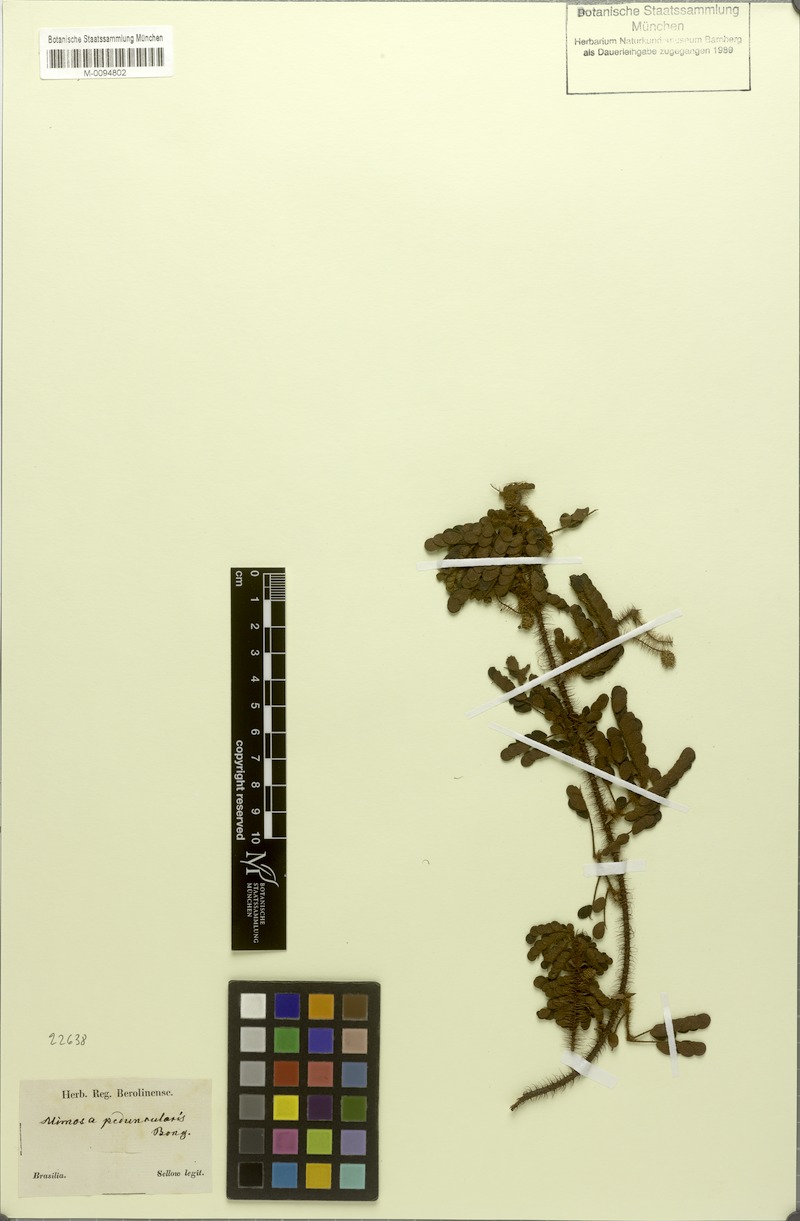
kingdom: Plantae
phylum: Tracheophyta
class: Magnoliopsida
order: Fabales
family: Fabaceae
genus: Mimosa
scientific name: Mimosa peduncularis
